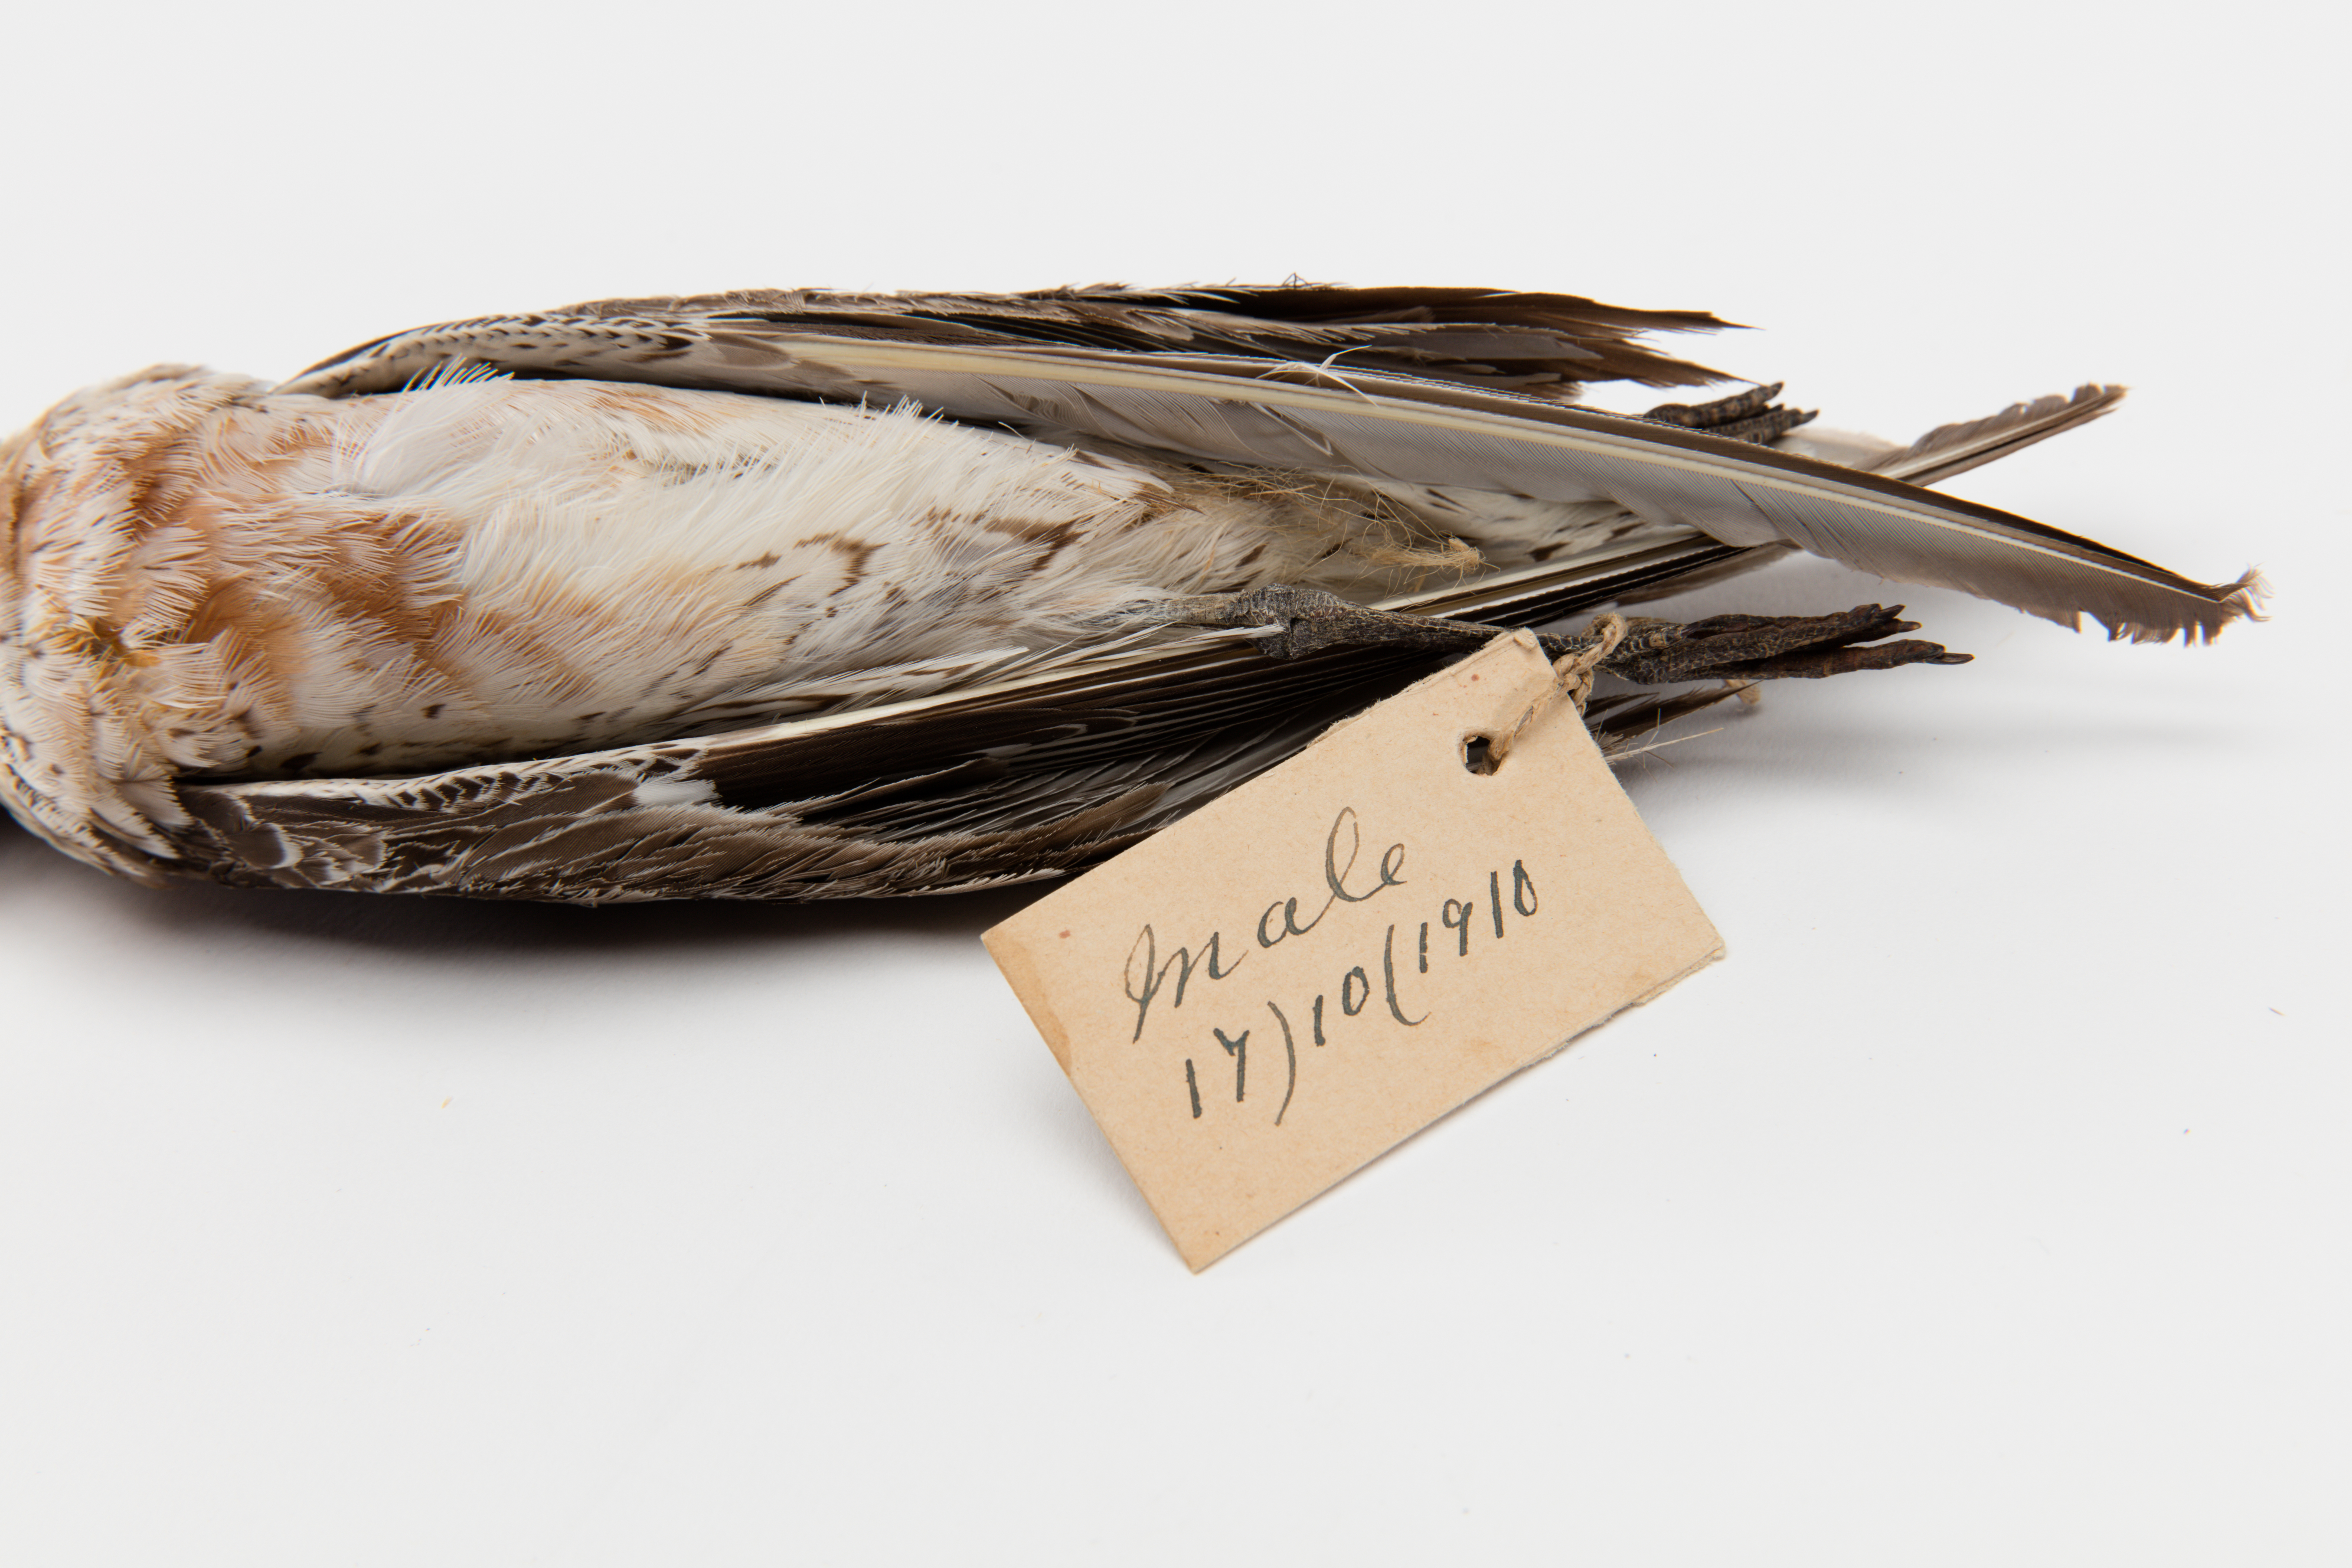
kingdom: Animalia
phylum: Chordata
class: Aves
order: Charadriiformes
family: Scolopacidae
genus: Calidris
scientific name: Calidris canutus
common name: Red knot
